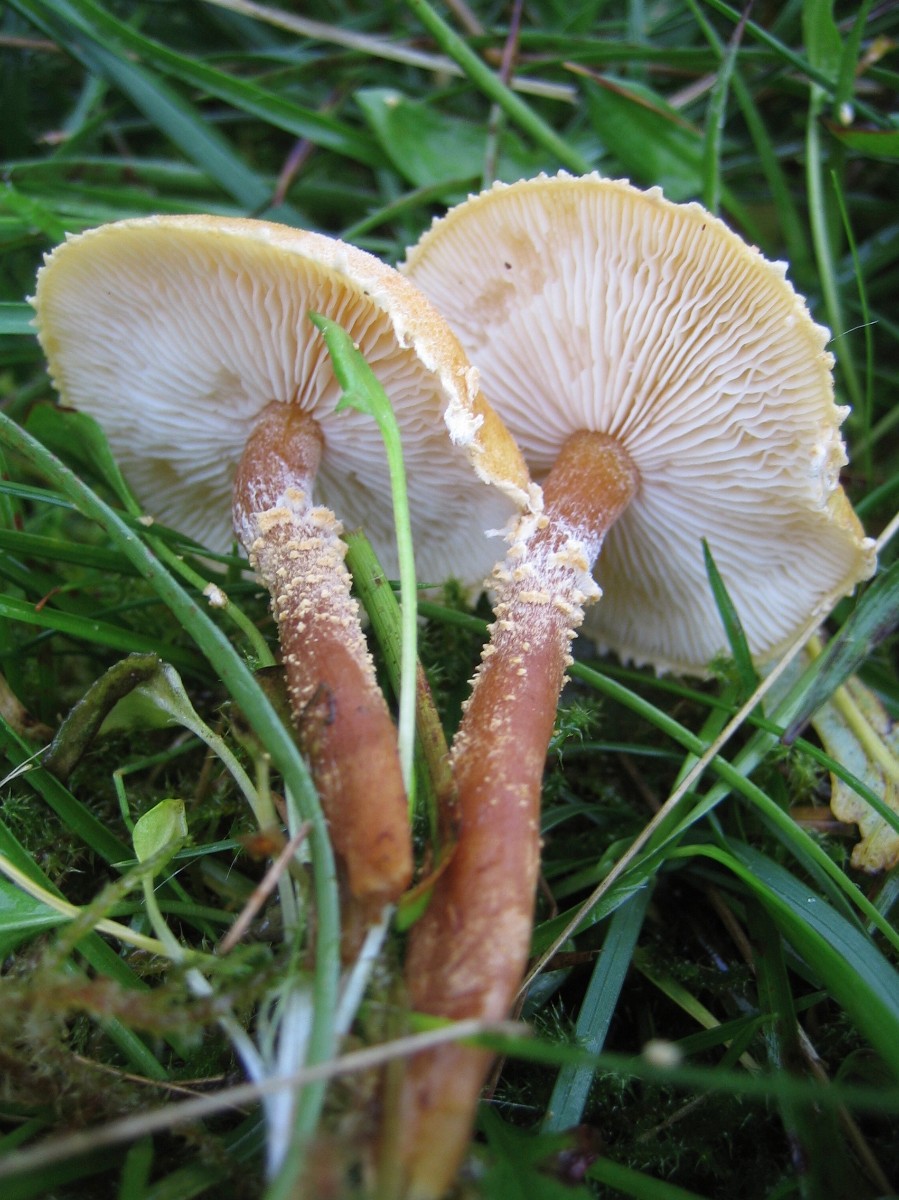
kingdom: Fungi
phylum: Basidiomycota
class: Agaricomycetes
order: Agaricales
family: Tricholomataceae
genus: Cystoderma
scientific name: Cystoderma amianthinum
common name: okkergul grynhat
